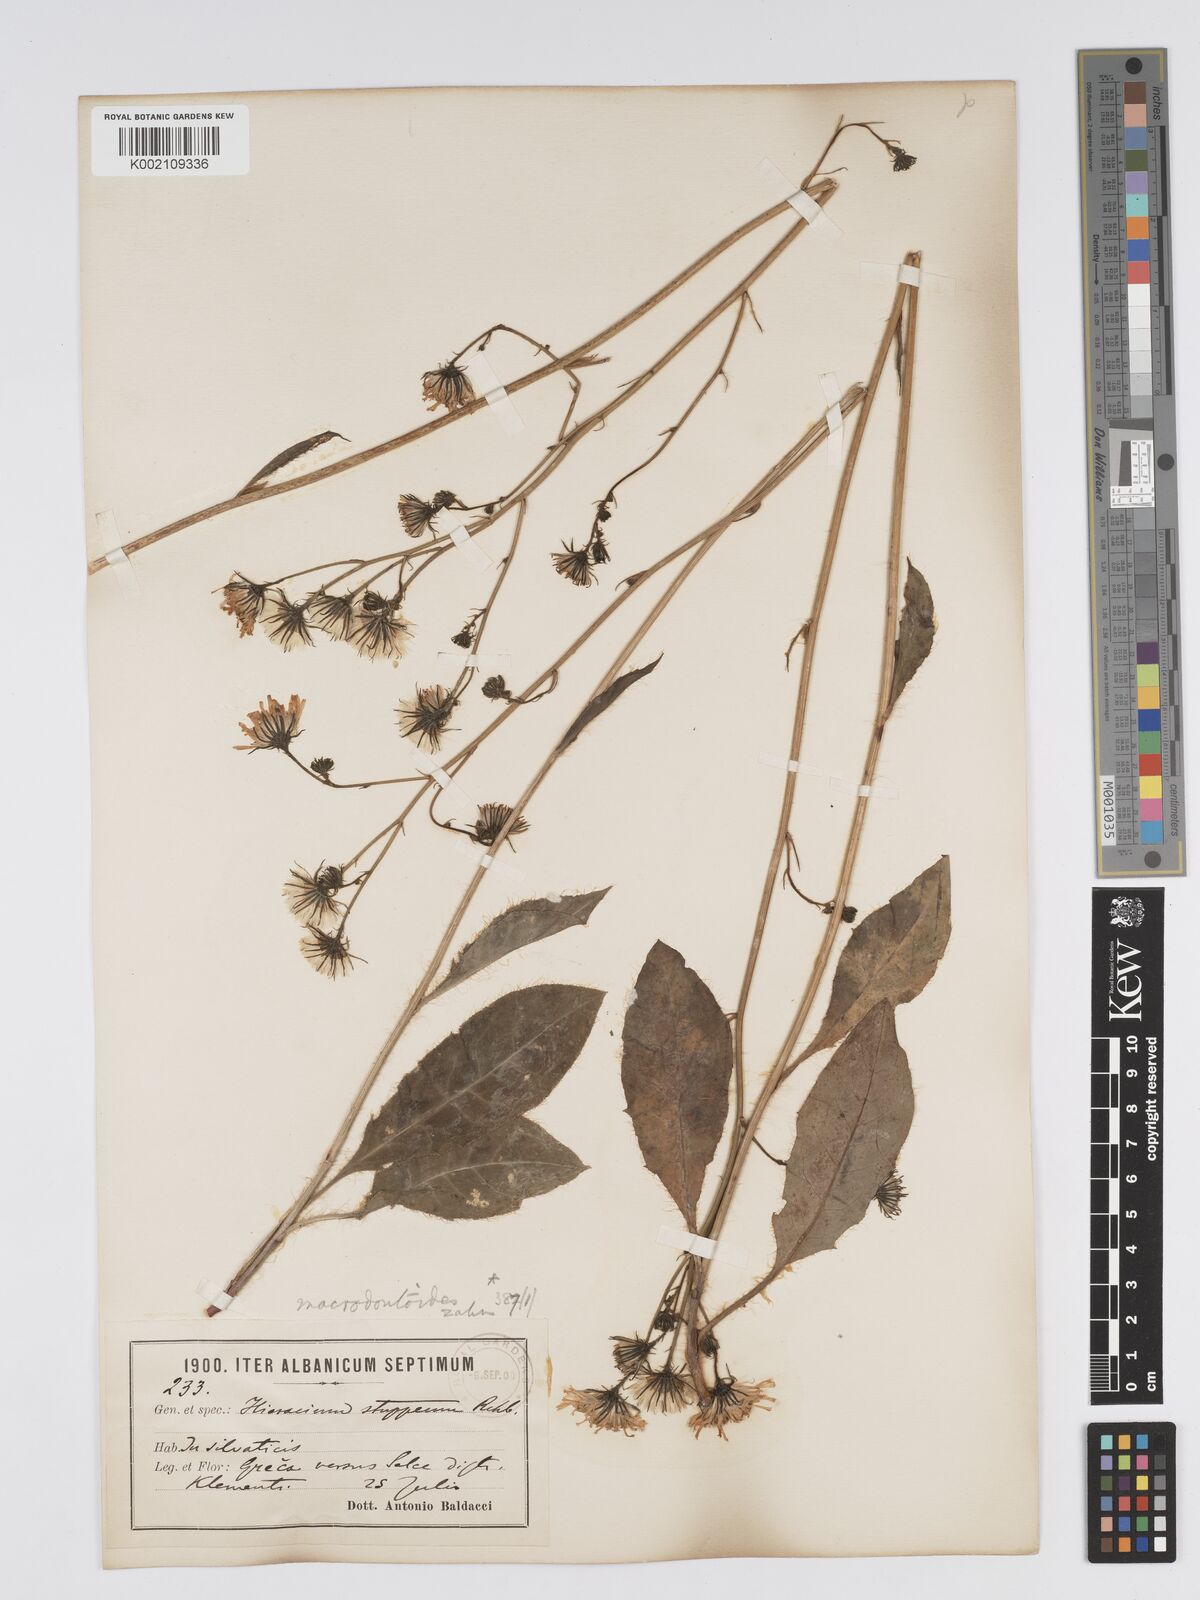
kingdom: Plantae
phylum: Tracheophyta
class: Magnoliopsida
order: Asterales
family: Asteraceae
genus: Hieracium
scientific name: Hieracium macrodontoides
